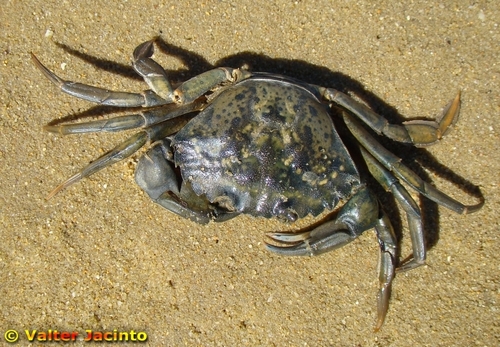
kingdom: Animalia
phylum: Arthropoda
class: Malacostraca
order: Decapoda
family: Carcinidae
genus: Carcinus
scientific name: Carcinus maenas
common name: European green crab
